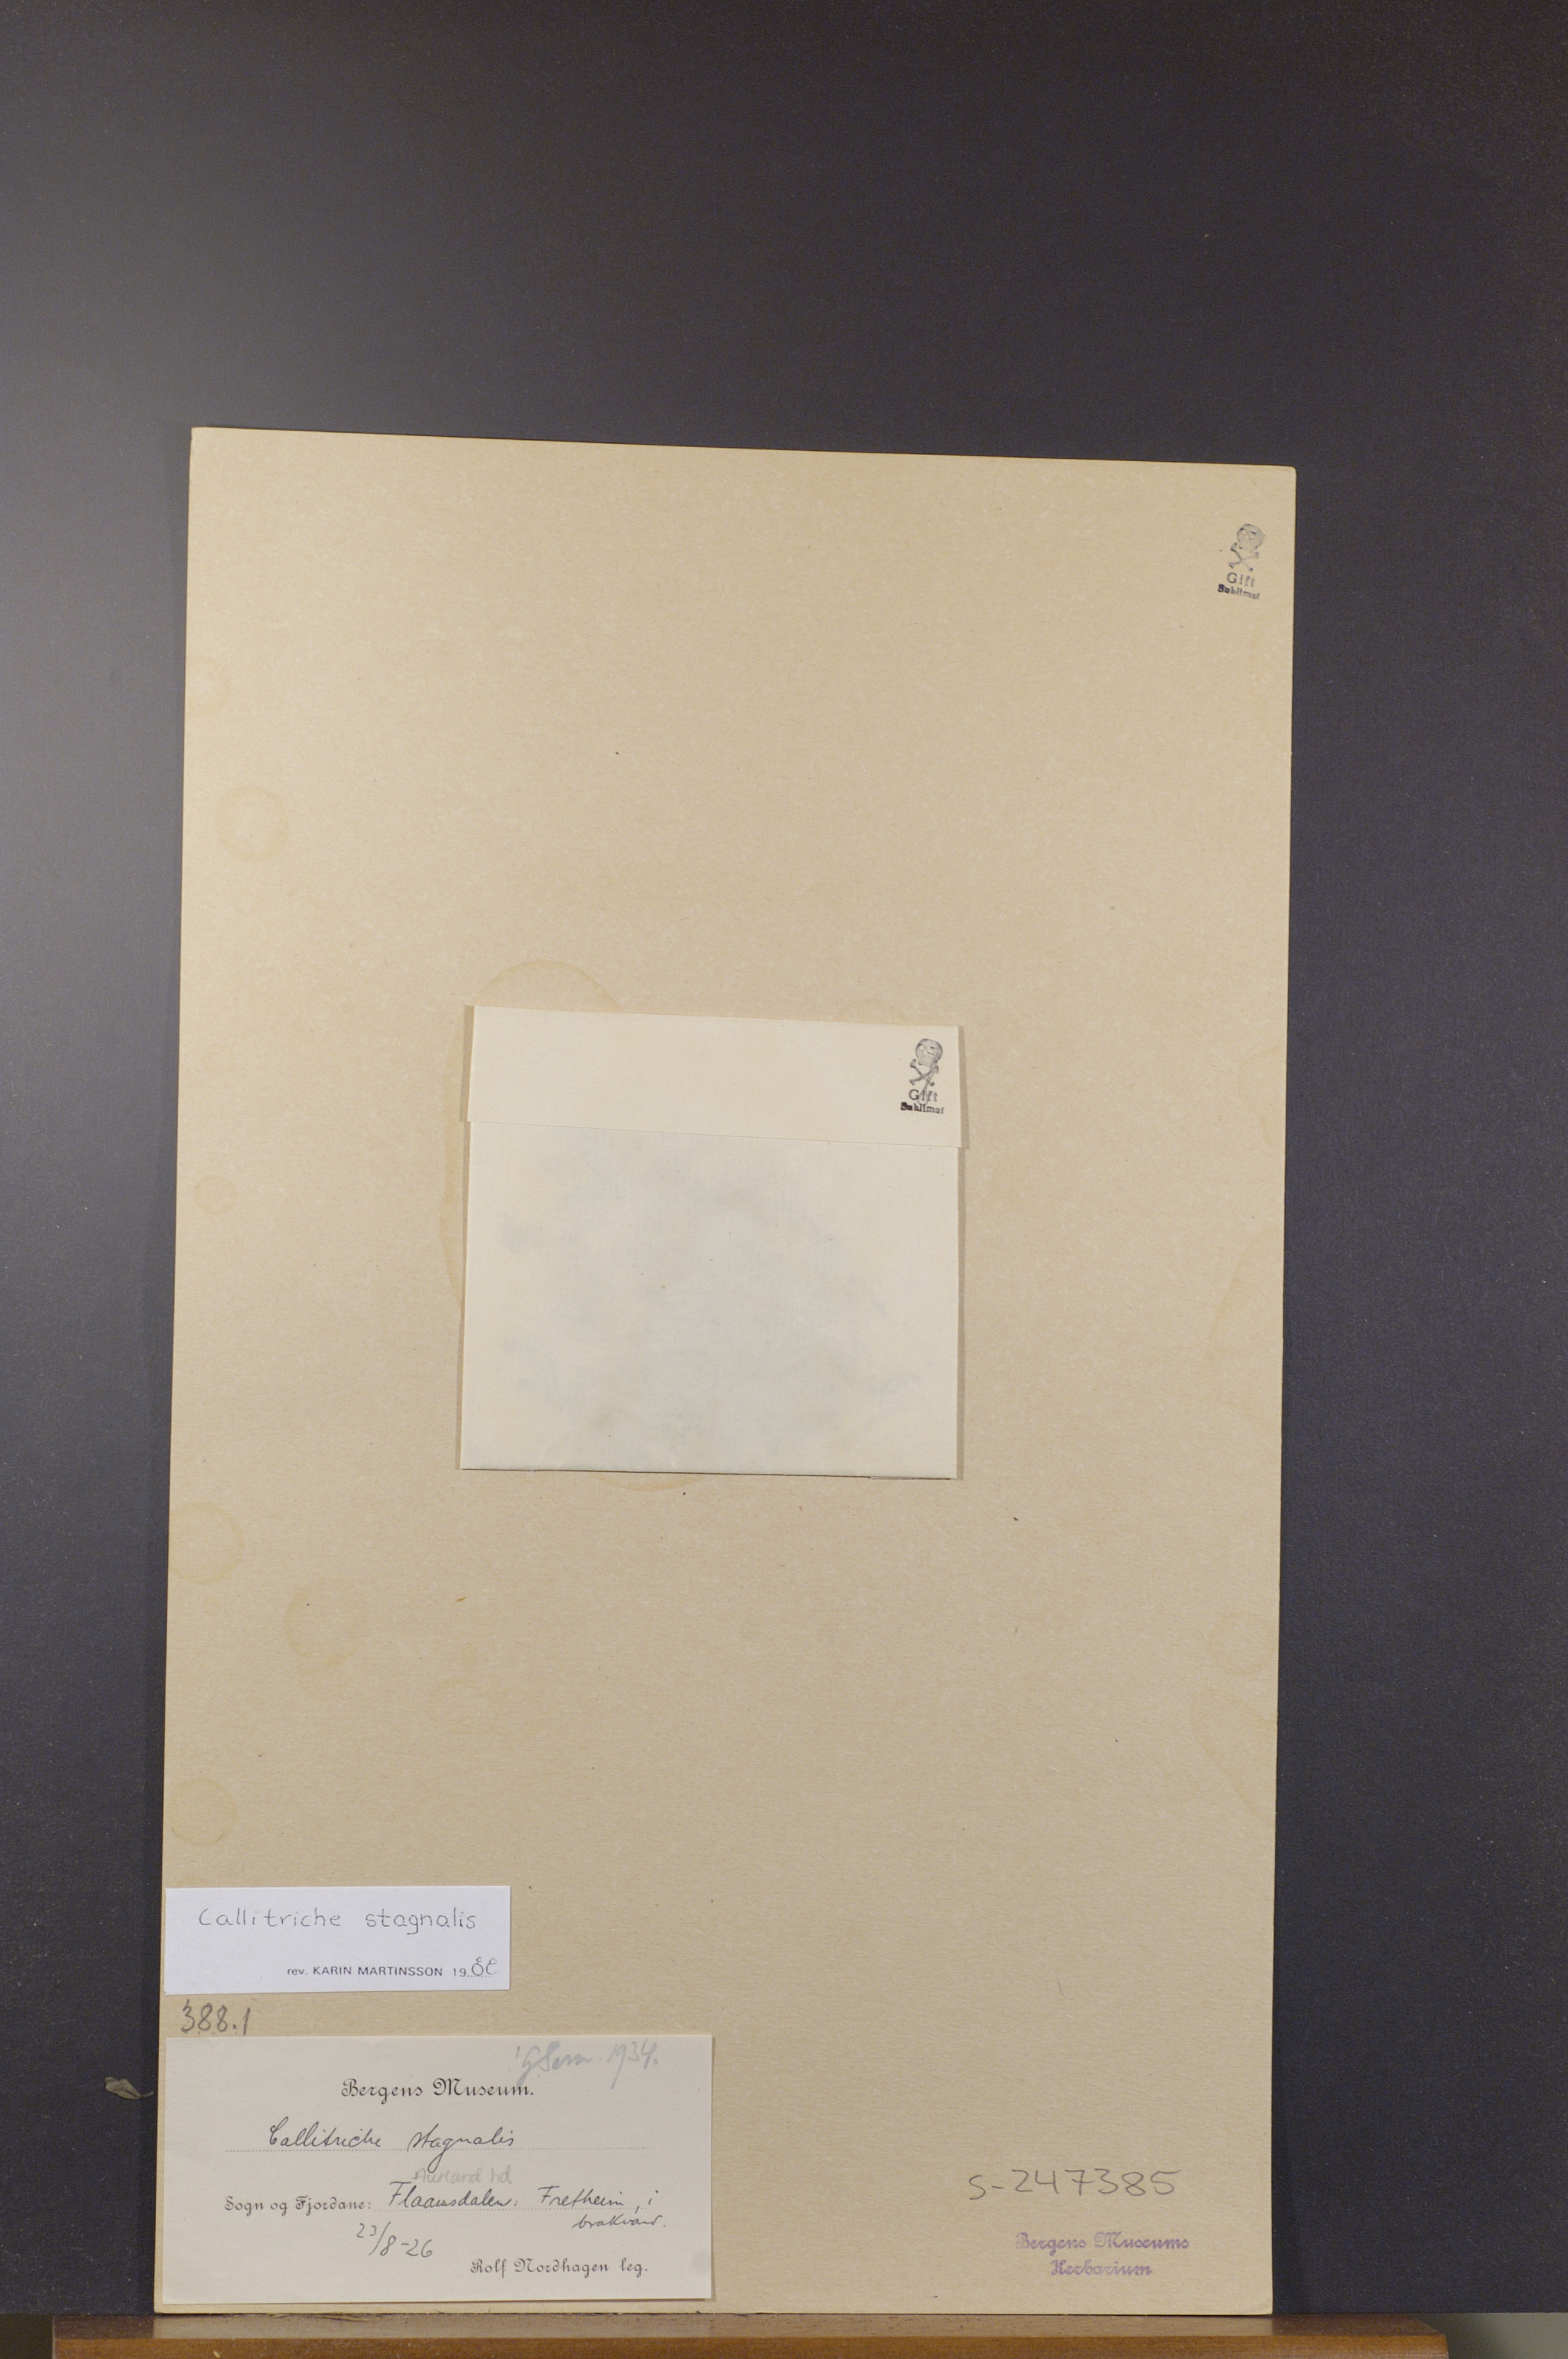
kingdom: Plantae
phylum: Tracheophyta
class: Magnoliopsida
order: Lamiales
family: Plantaginaceae
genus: Callitriche
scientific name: Callitriche stagnalis
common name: Common water-starwort
